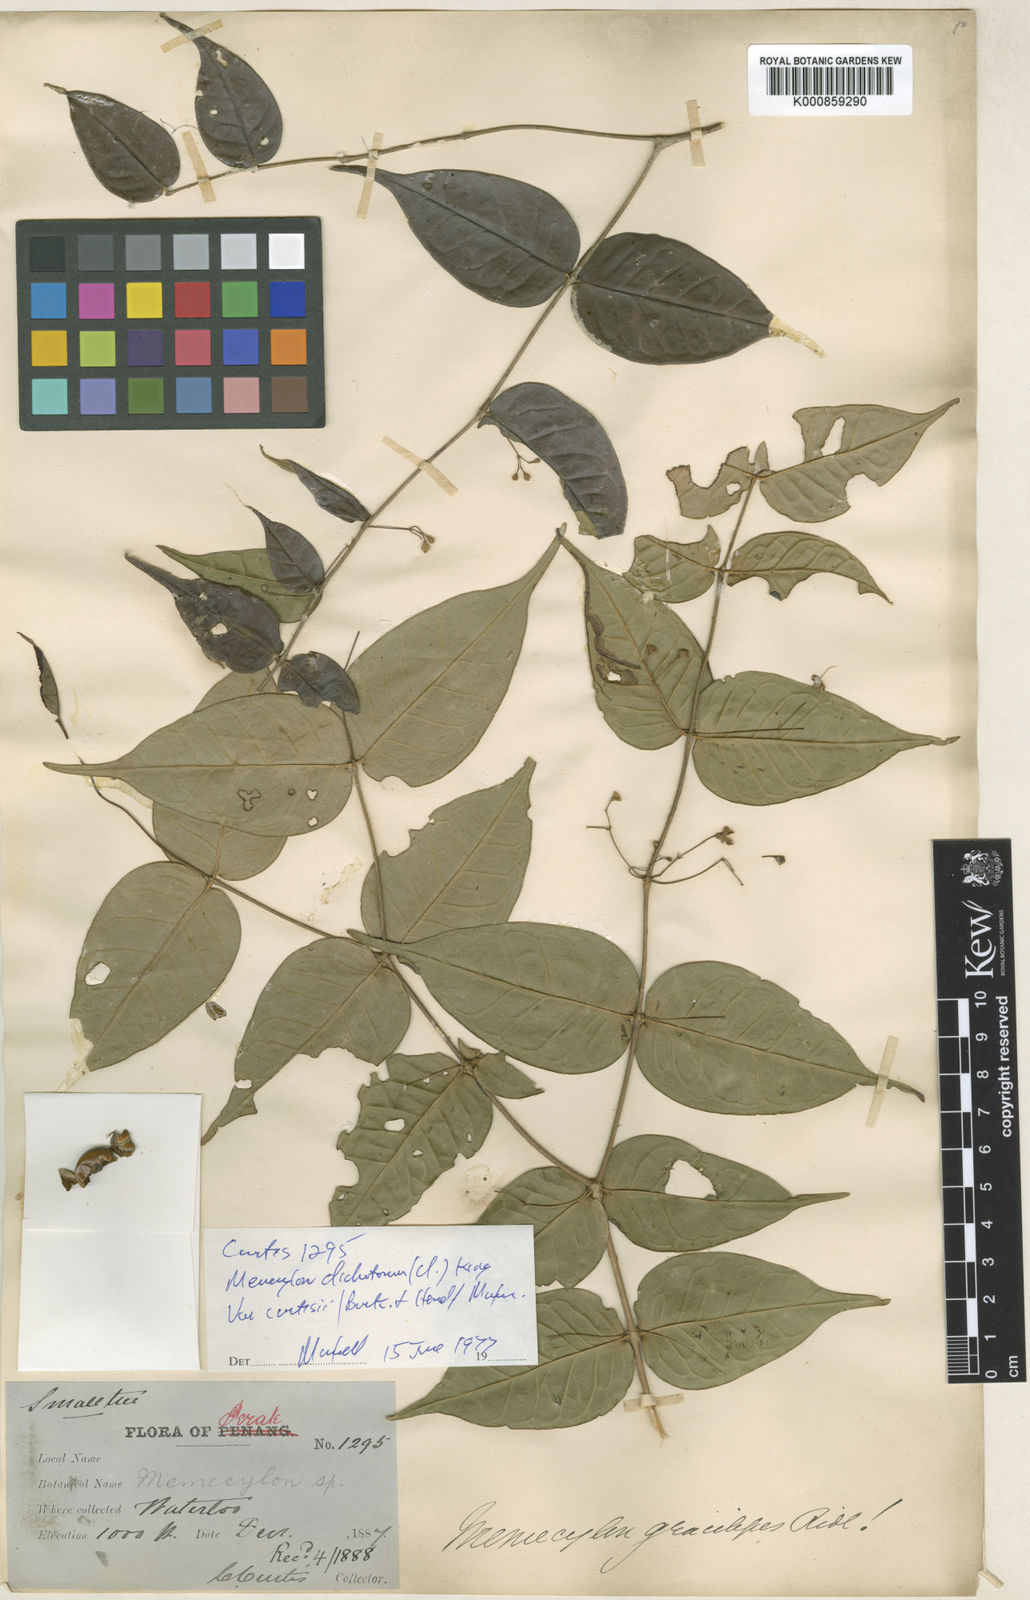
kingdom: Plantae
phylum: Tracheophyta
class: Magnoliopsida
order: Myrtales
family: Melastomataceae
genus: Memecylon
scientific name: Memecylon dichotomum
